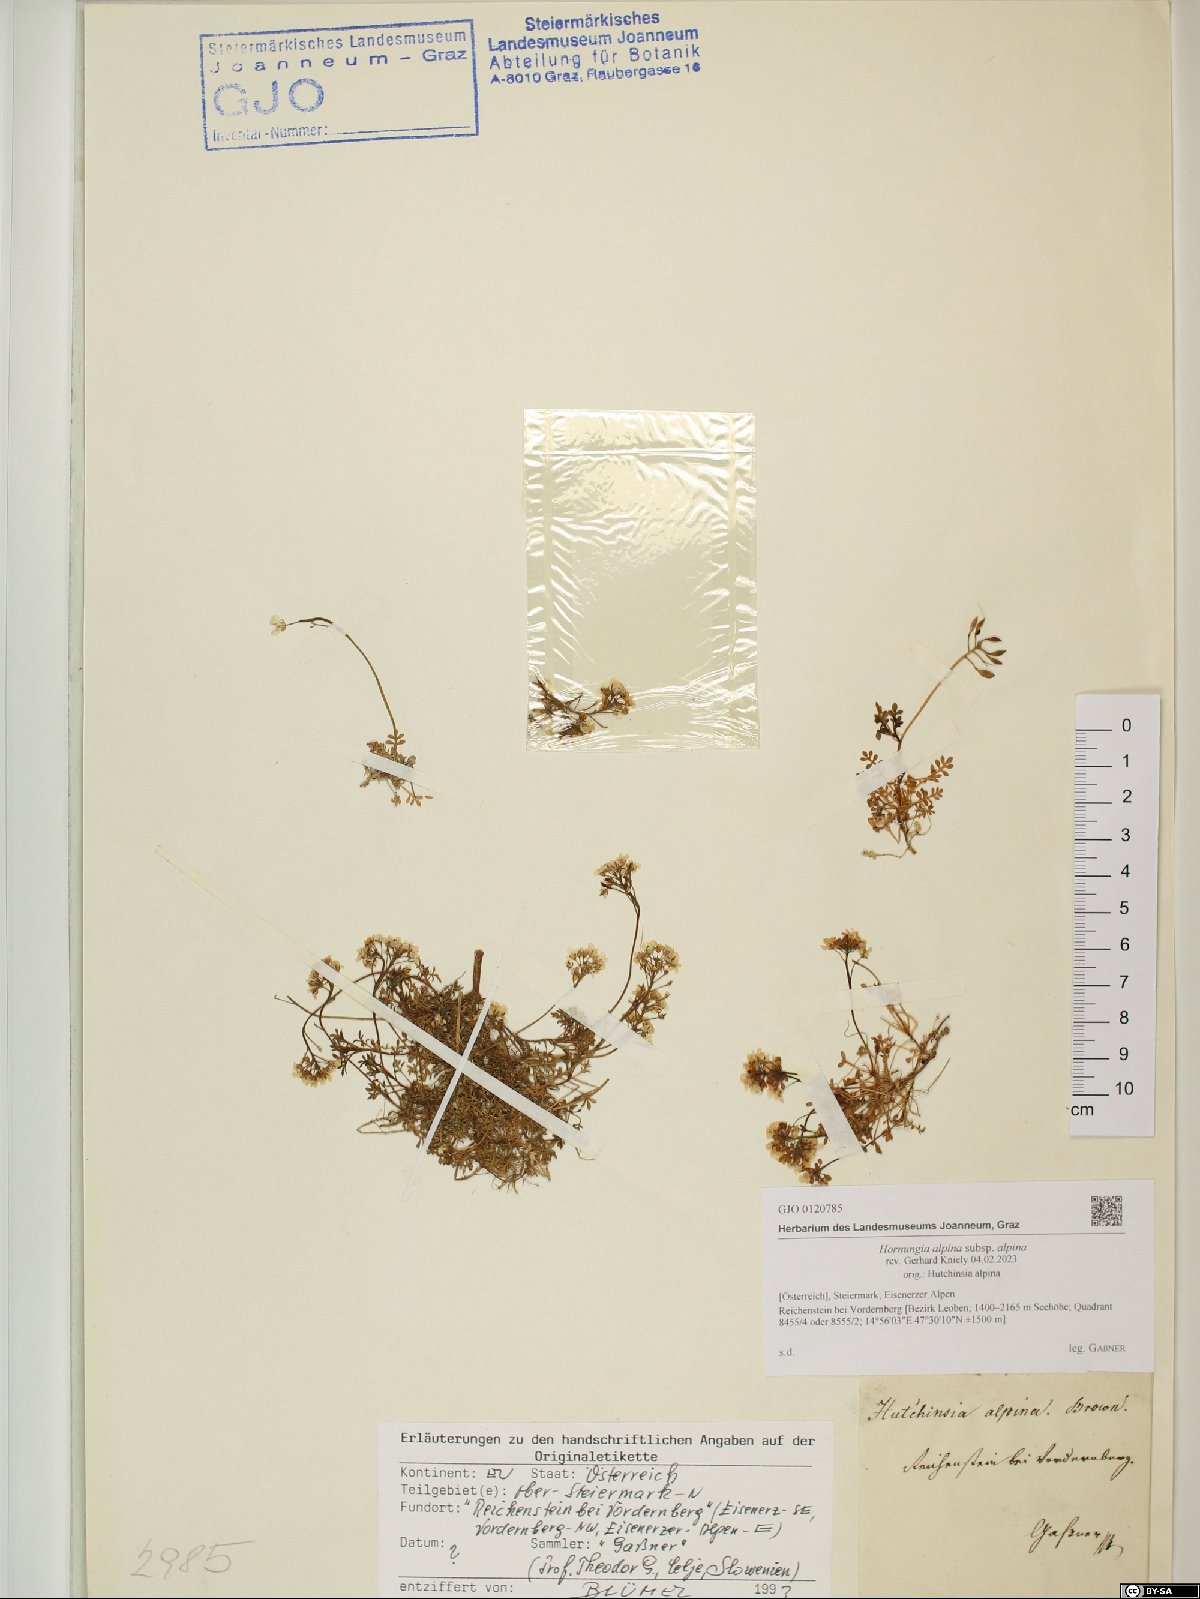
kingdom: Plantae
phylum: Tracheophyta
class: Magnoliopsida
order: Brassicales
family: Brassicaceae
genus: Hornungia
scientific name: Hornungia alpina
